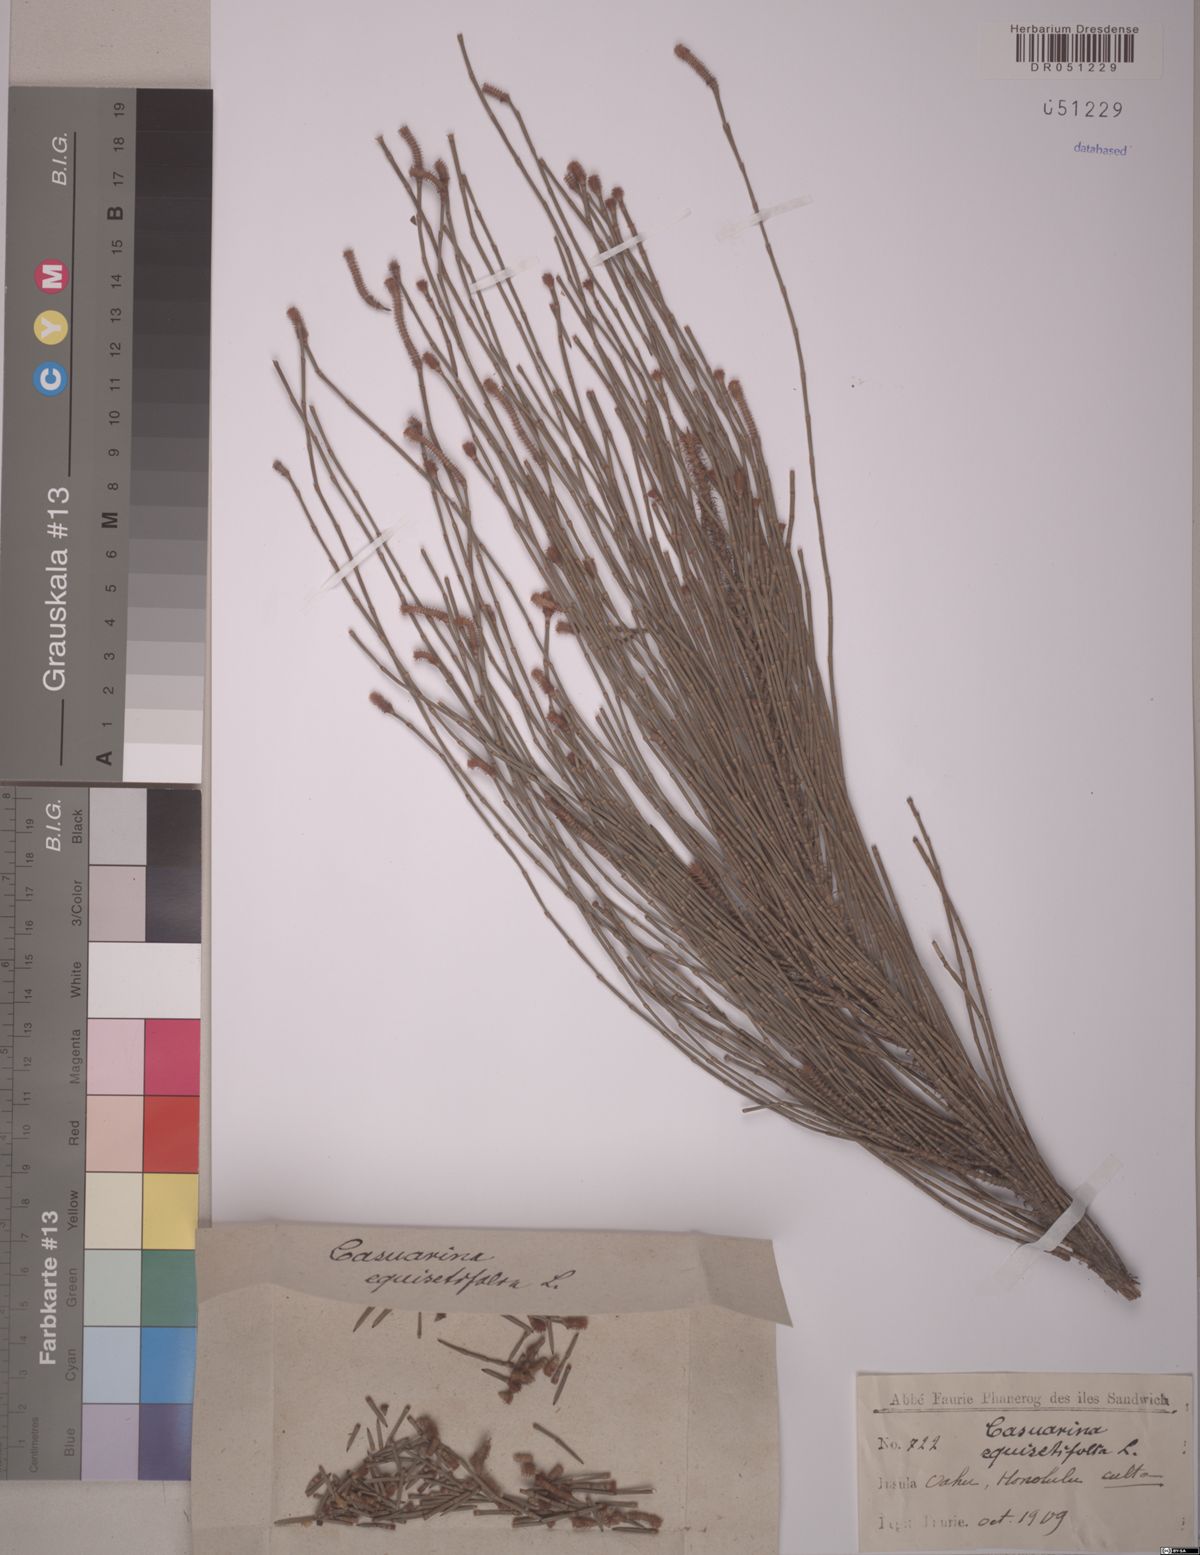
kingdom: Plantae
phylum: Tracheophyta
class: Magnoliopsida
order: Fagales
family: Casuarinaceae
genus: Casuarina
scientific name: Casuarina equisetifolia
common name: Beach sheoak
